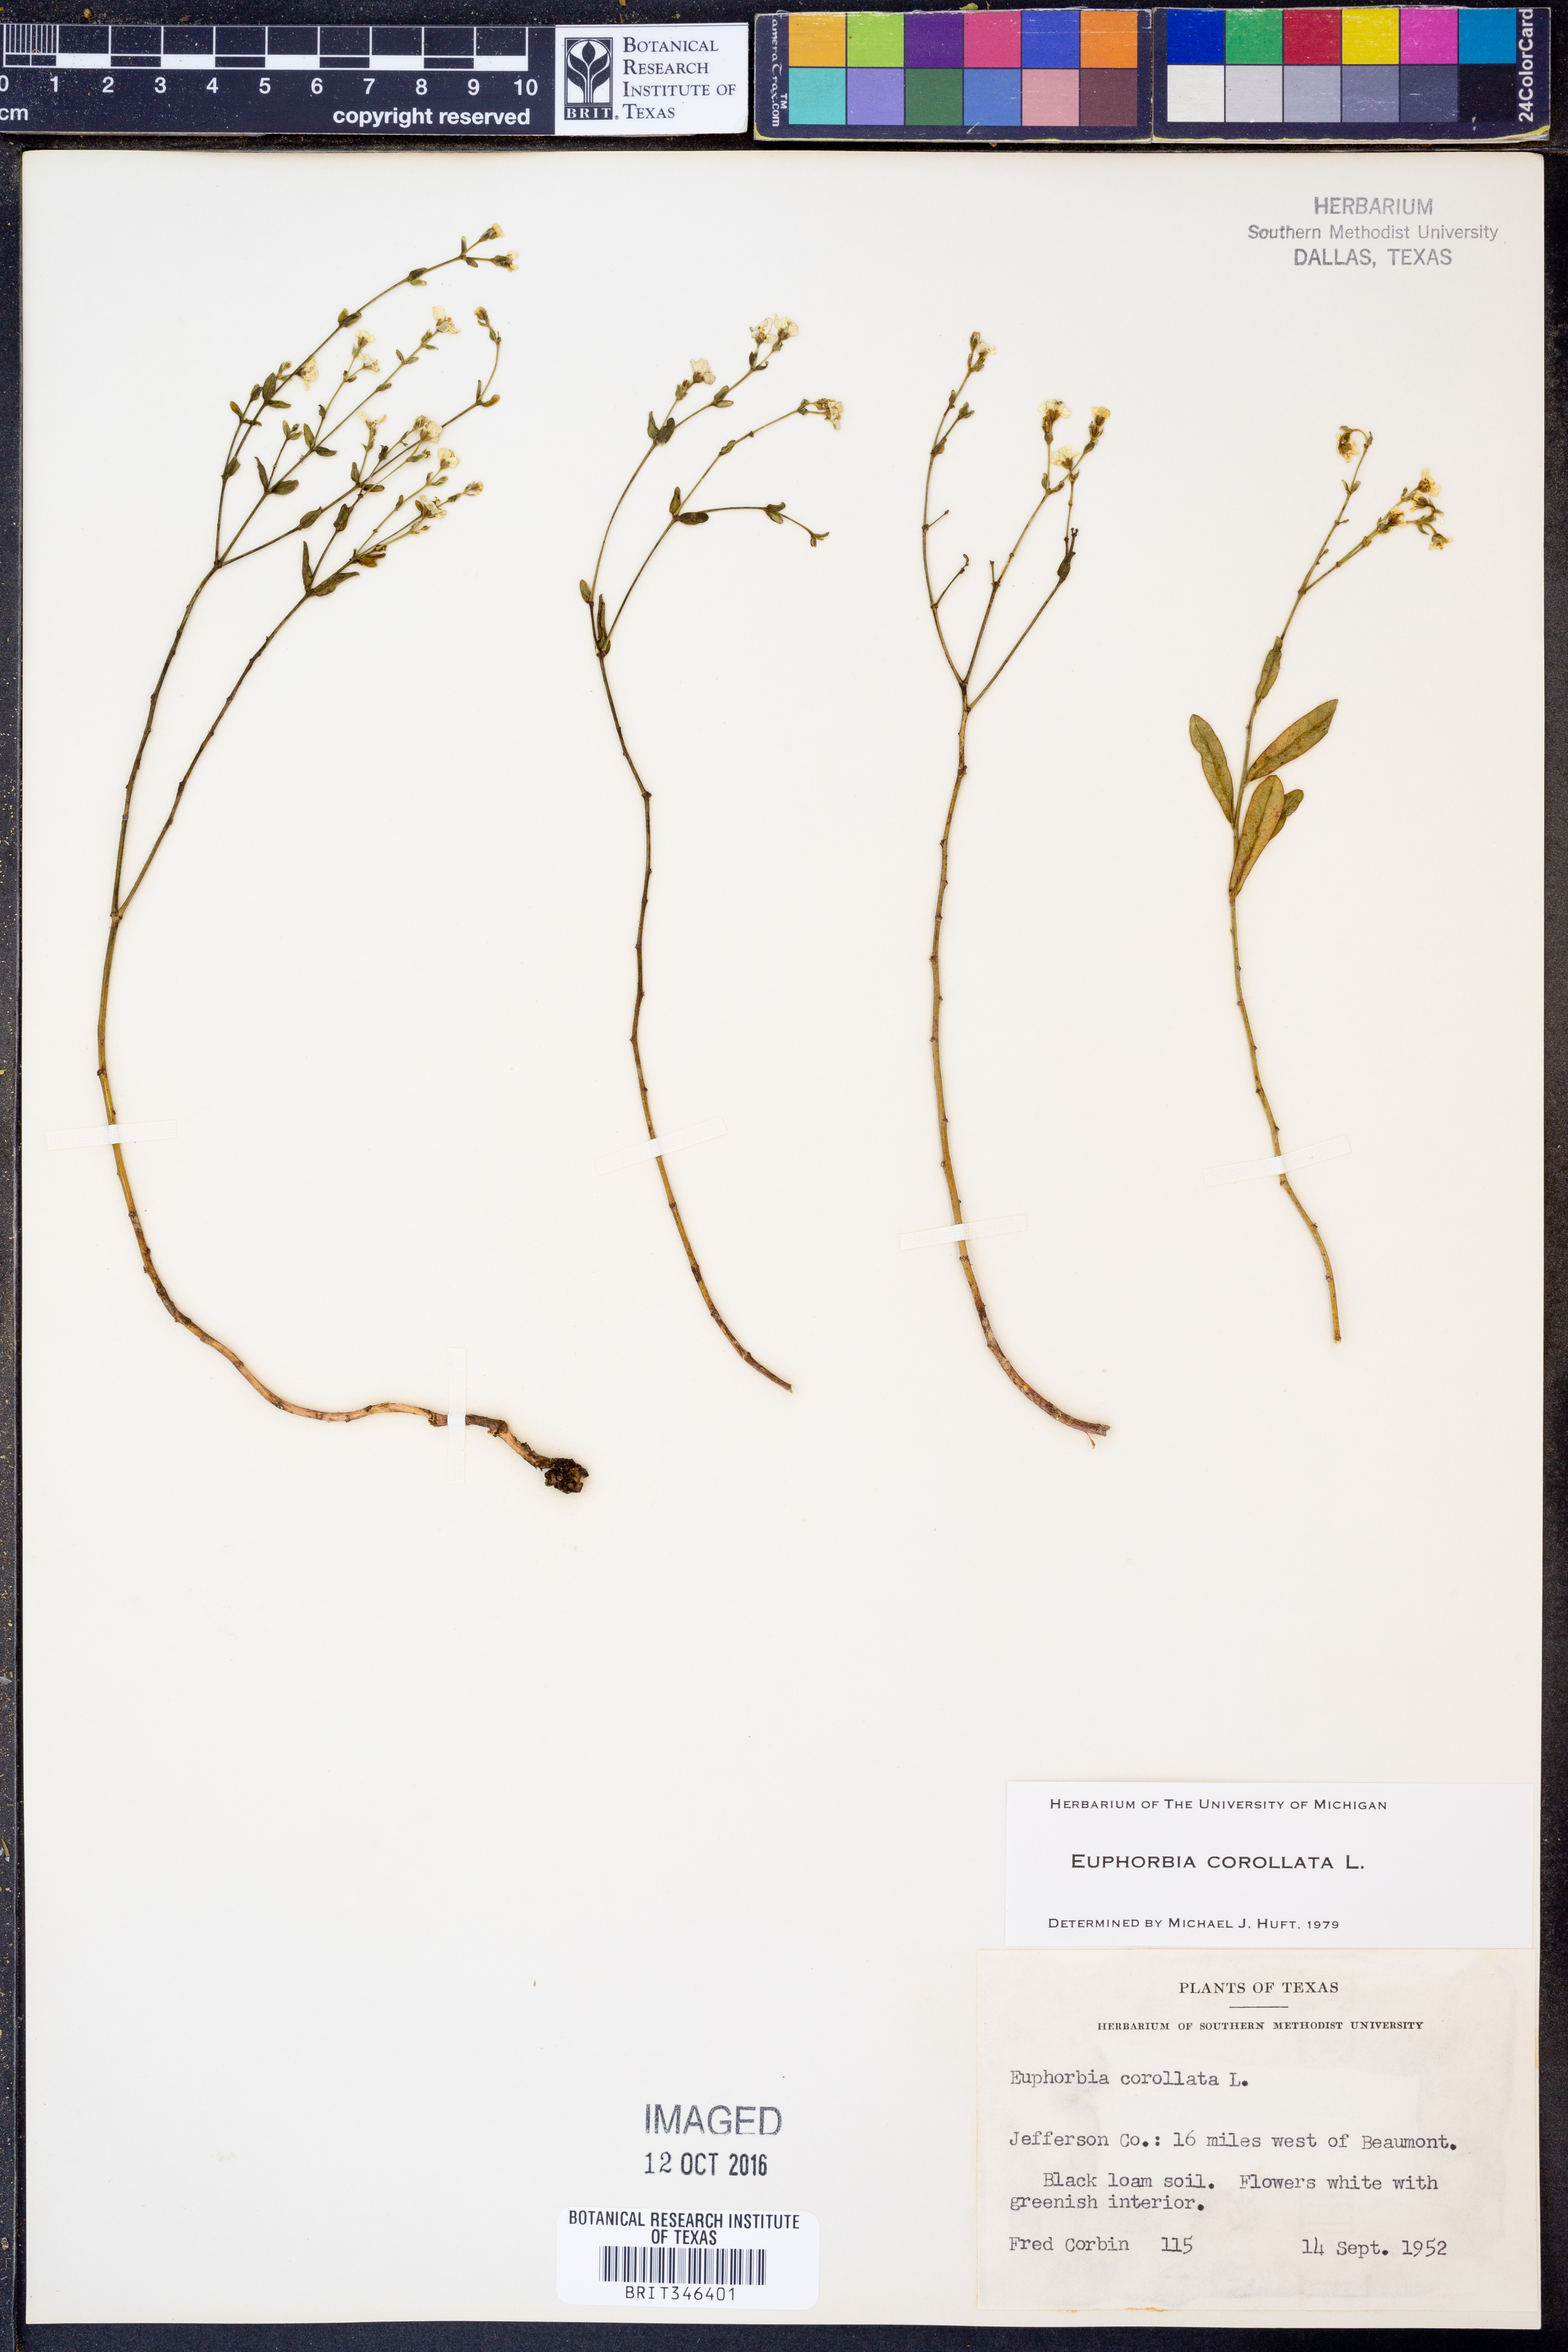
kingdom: Plantae
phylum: Tracheophyta
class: Magnoliopsida
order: Malpighiales
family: Euphorbiaceae
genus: Euphorbia
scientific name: Euphorbia corollata
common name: Flowering spurge
